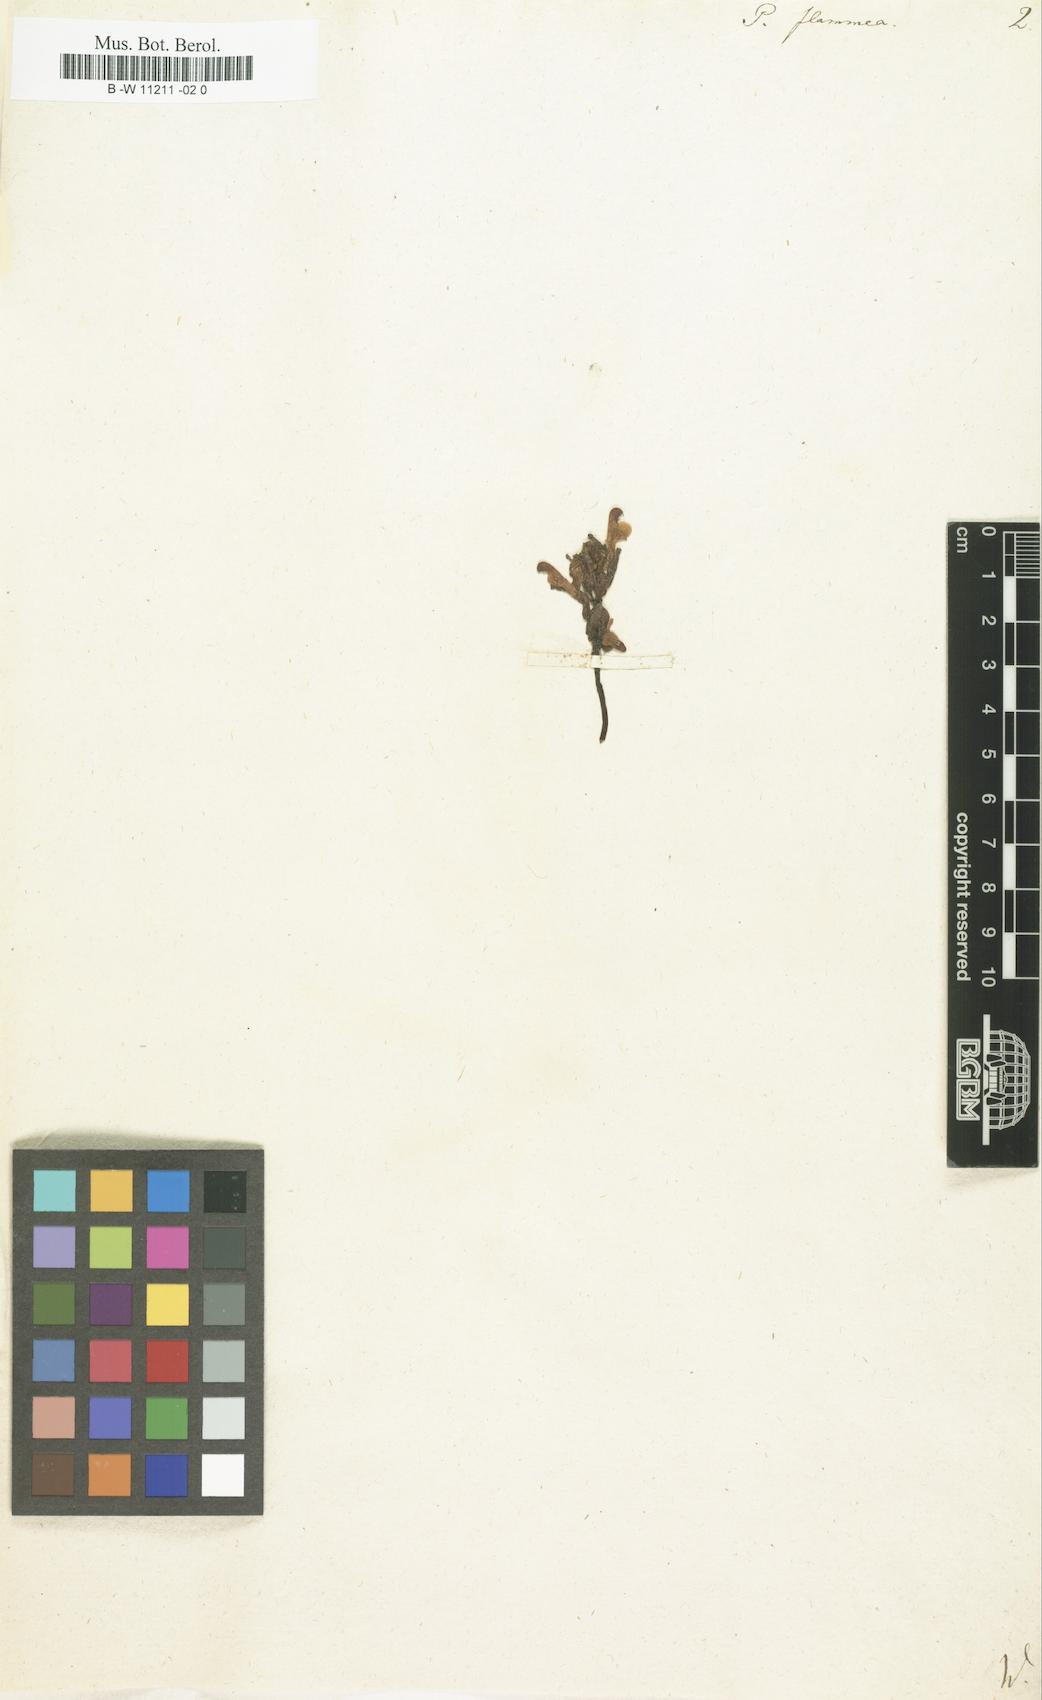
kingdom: Plantae
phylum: Tracheophyta
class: Magnoliopsida
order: Lamiales
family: Orobanchaceae
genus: Pedicularis
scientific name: Pedicularis flammea
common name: Flame-coloured lousewort
